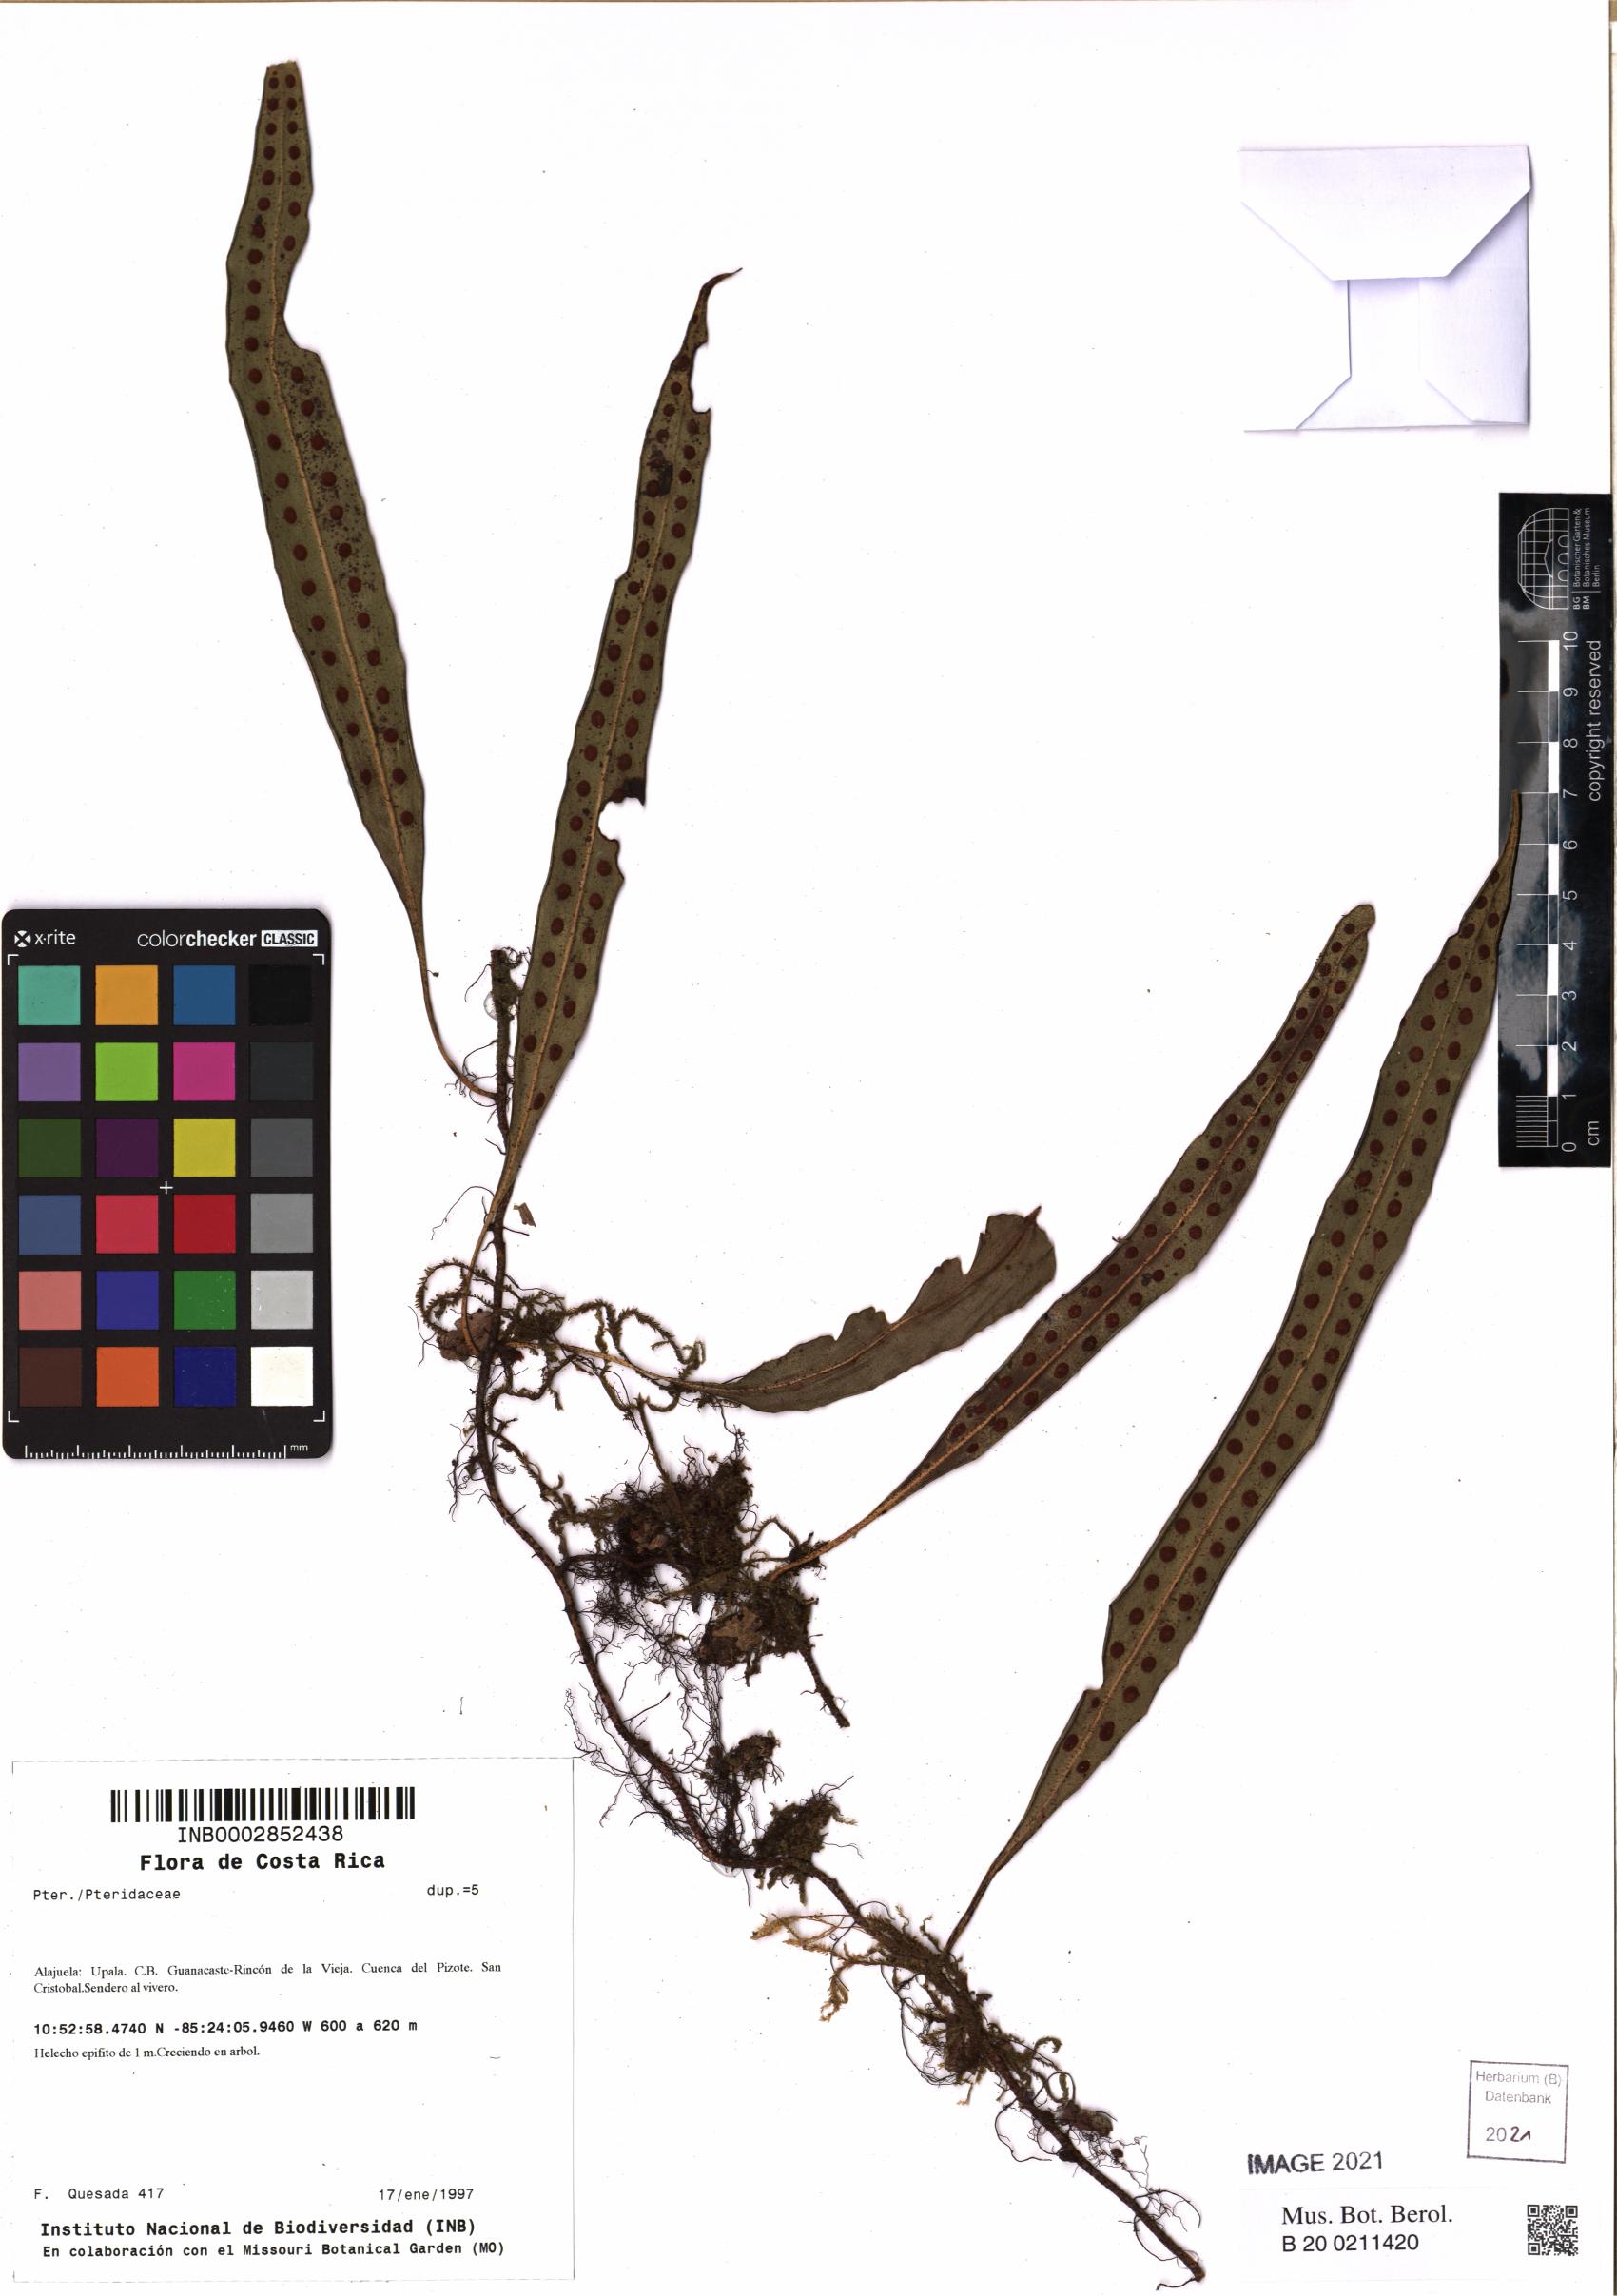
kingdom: Plantae
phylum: Tracheophyta
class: Polypodiopsida
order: Polypodiales
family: Polypodiaceae
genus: Pleopeltis
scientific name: Pleopeltis
